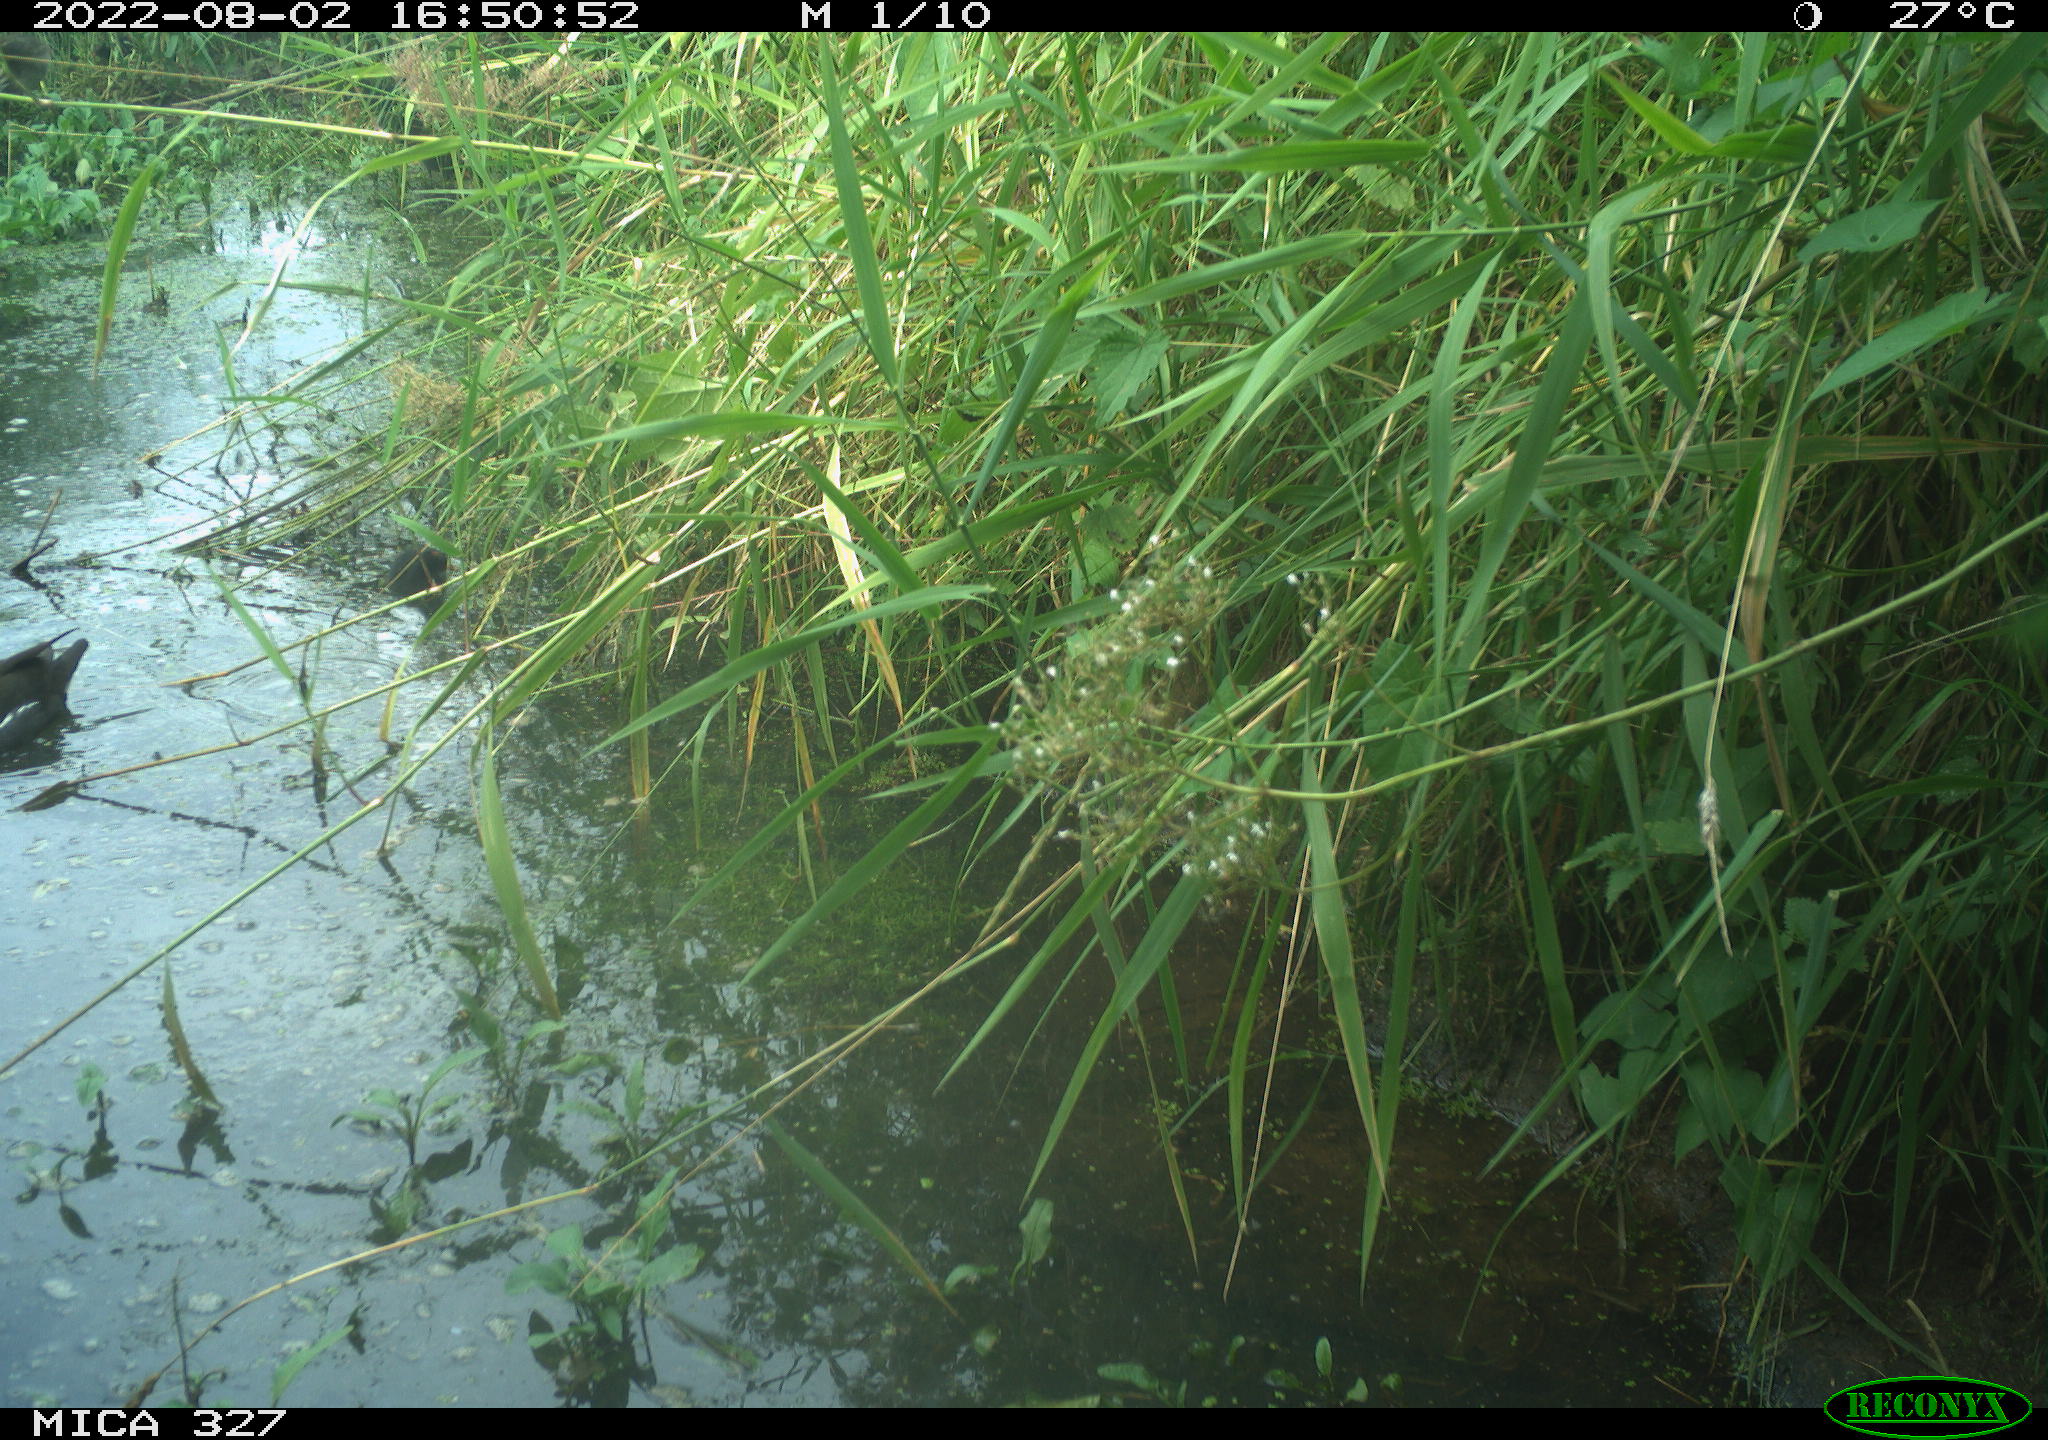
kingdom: Animalia
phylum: Chordata
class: Aves
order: Gruiformes
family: Rallidae
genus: Gallinula
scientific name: Gallinula chloropus
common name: Common moorhen
